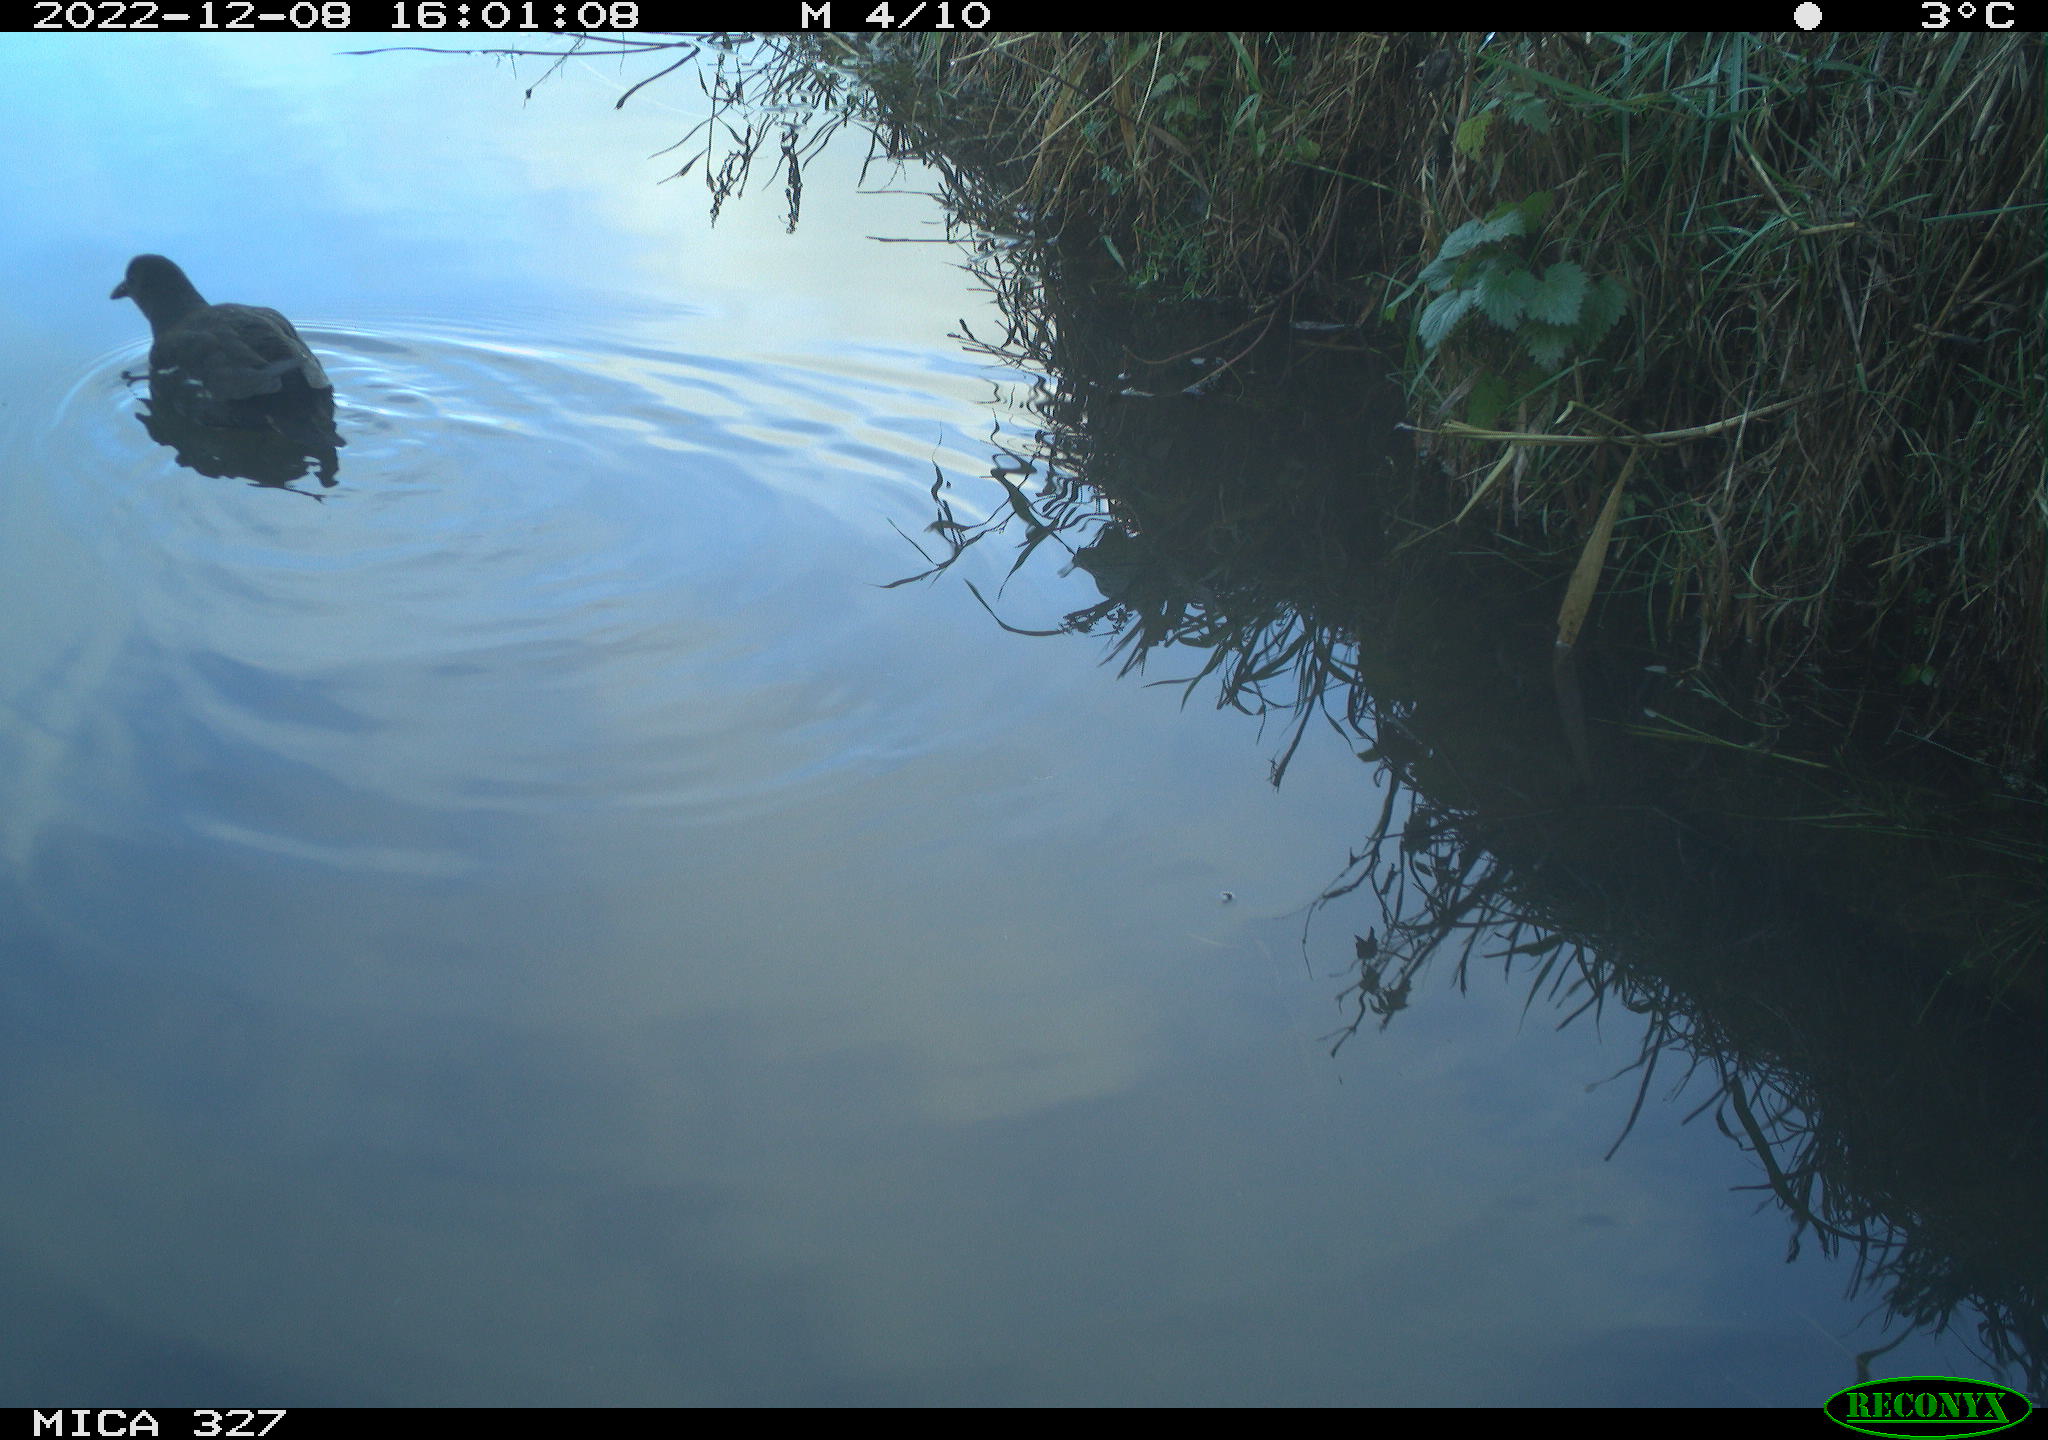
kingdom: Animalia
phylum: Chordata
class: Aves
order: Gruiformes
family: Rallidae
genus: Gallinula
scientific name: Gallinula chloropus
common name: Common moorhen
